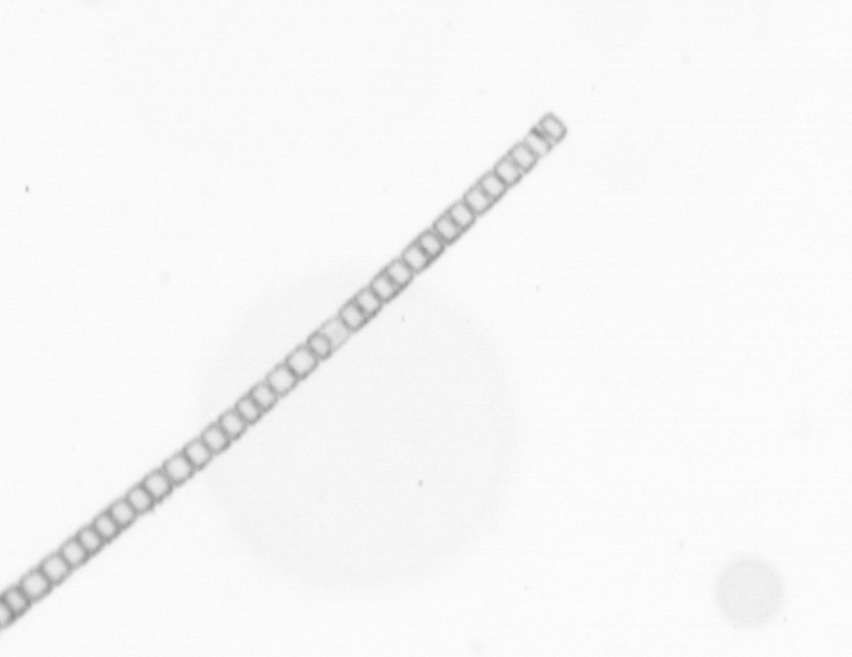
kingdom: Chromista
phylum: Ochrophyta
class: Bacillariophyceae
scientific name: Bacillariophyceae
